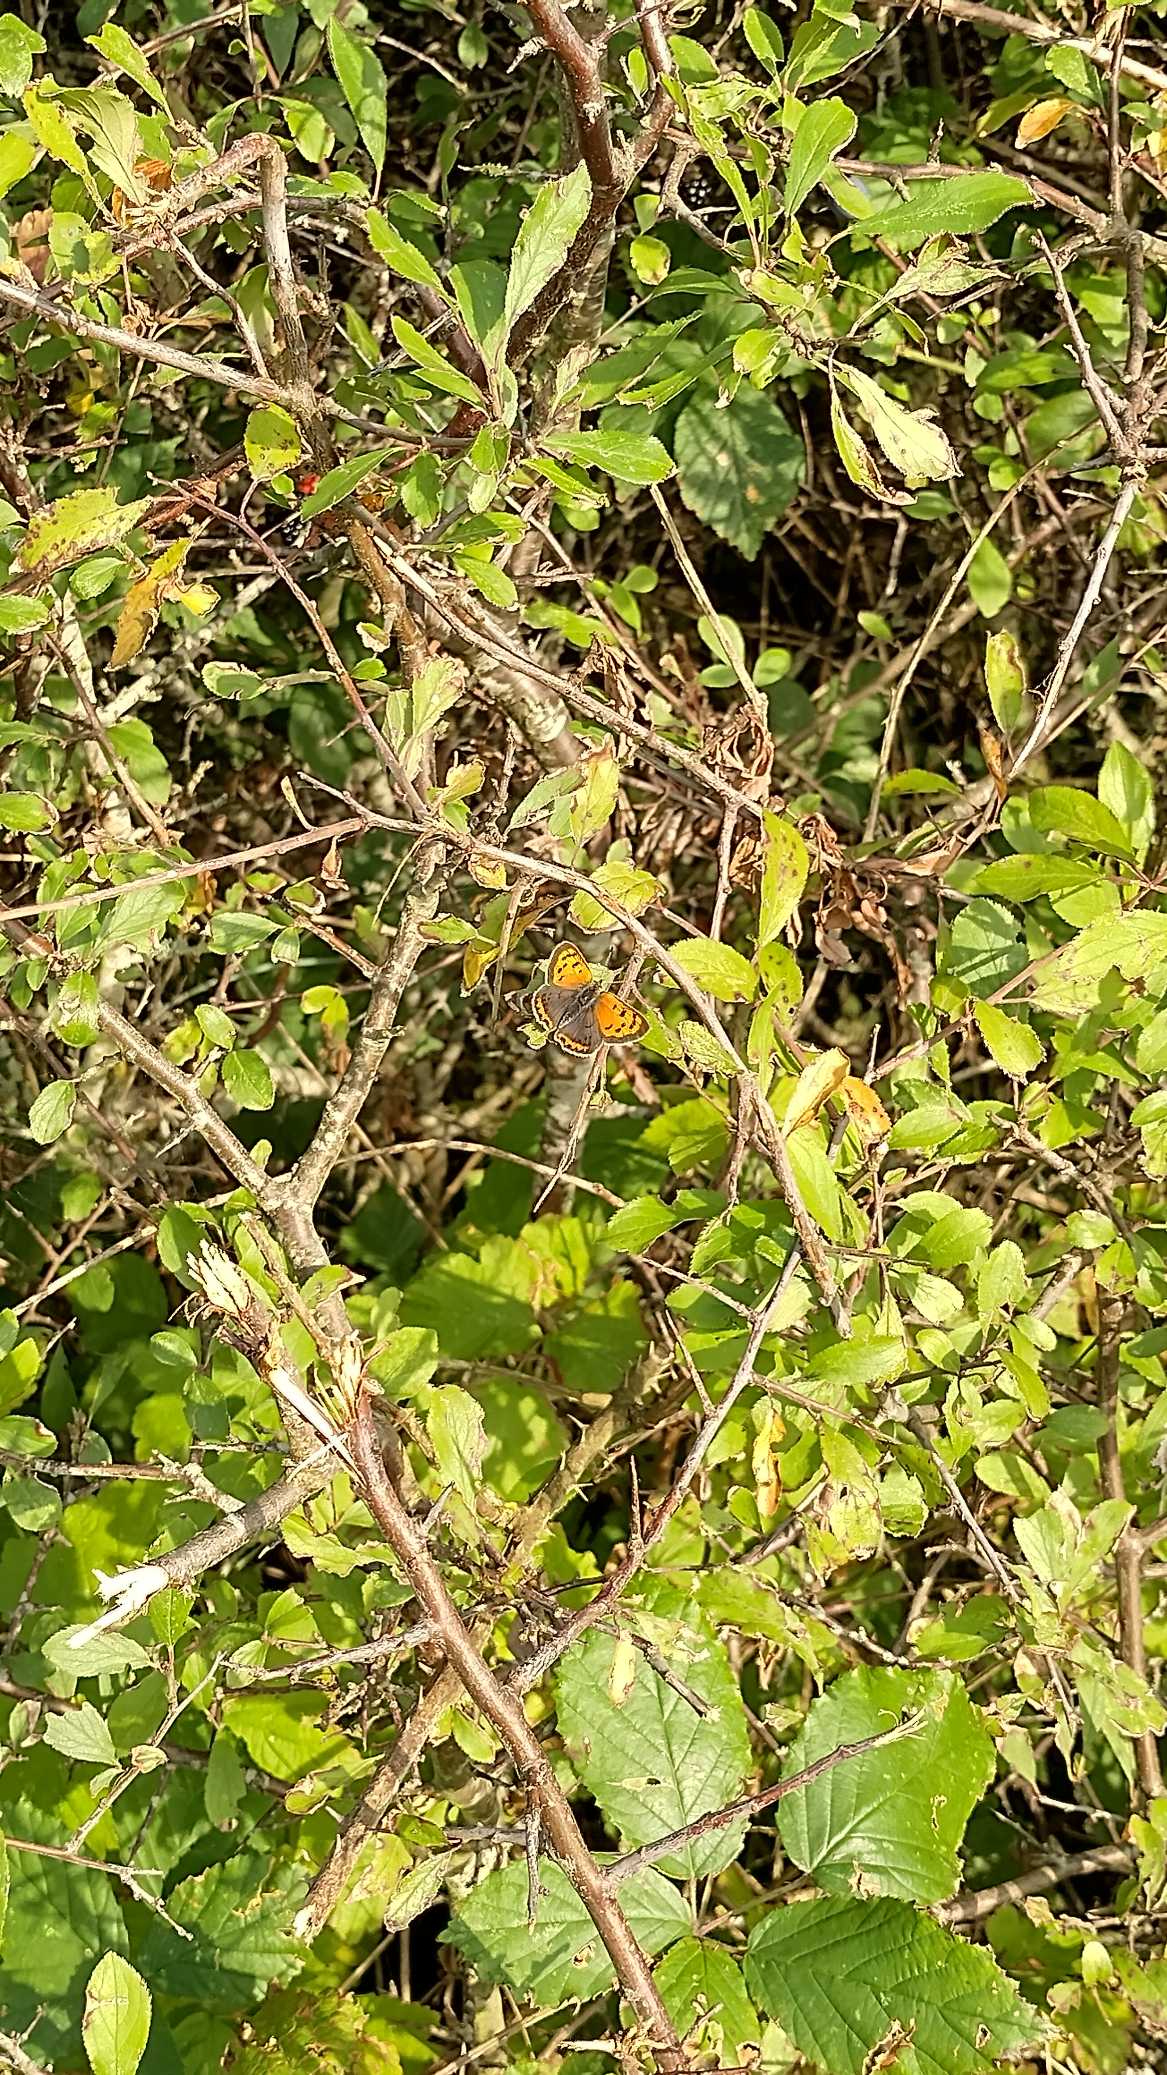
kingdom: Animalia
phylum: Arthropoda
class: Insecta
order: Lepidoptera
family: Lycaenidae
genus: Lycaena
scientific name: Lycaena phlaeas
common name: Lille ildfugl
